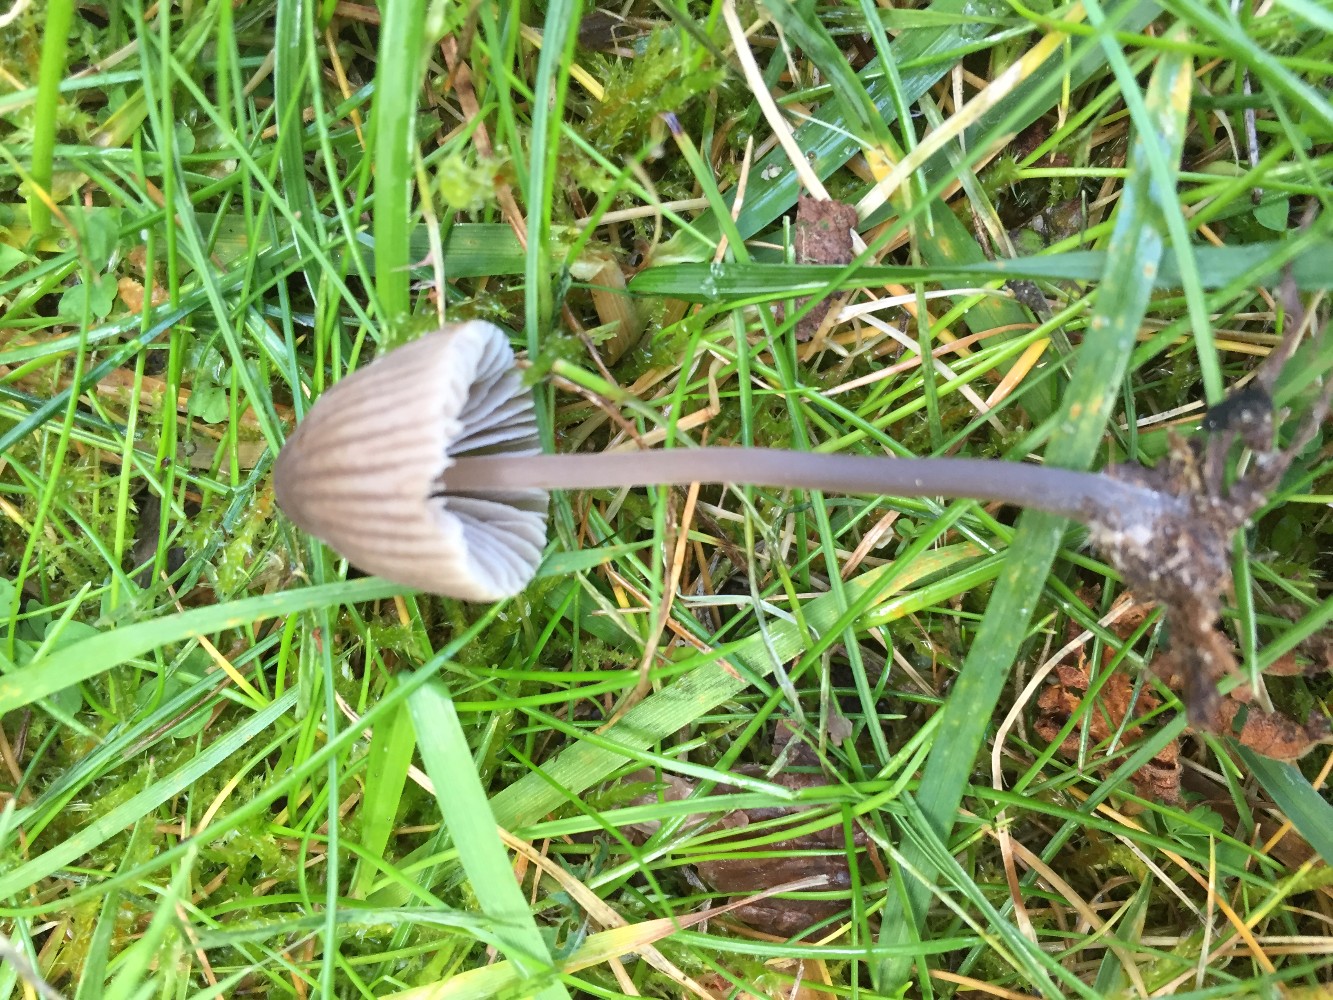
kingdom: Fungi
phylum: Basidiomycota
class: Agaricomycetes
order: Agaricales
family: Mycenaceae
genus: Mycena
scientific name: Mycena leptocephala
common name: klor-huesvamp
